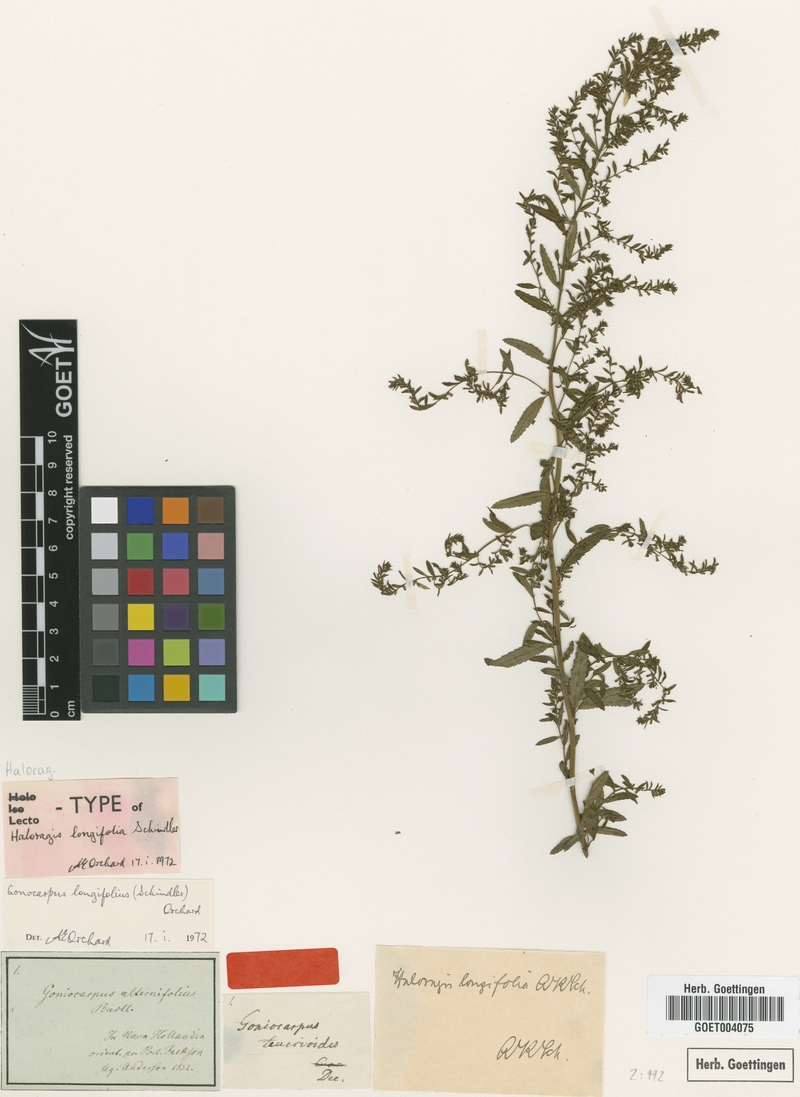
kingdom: Plantae
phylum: Tracheophyta
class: Magnoliopsida
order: Saxifragales
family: Haloragaceae
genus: Gonocarpus
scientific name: Gonocarpus longifolius
